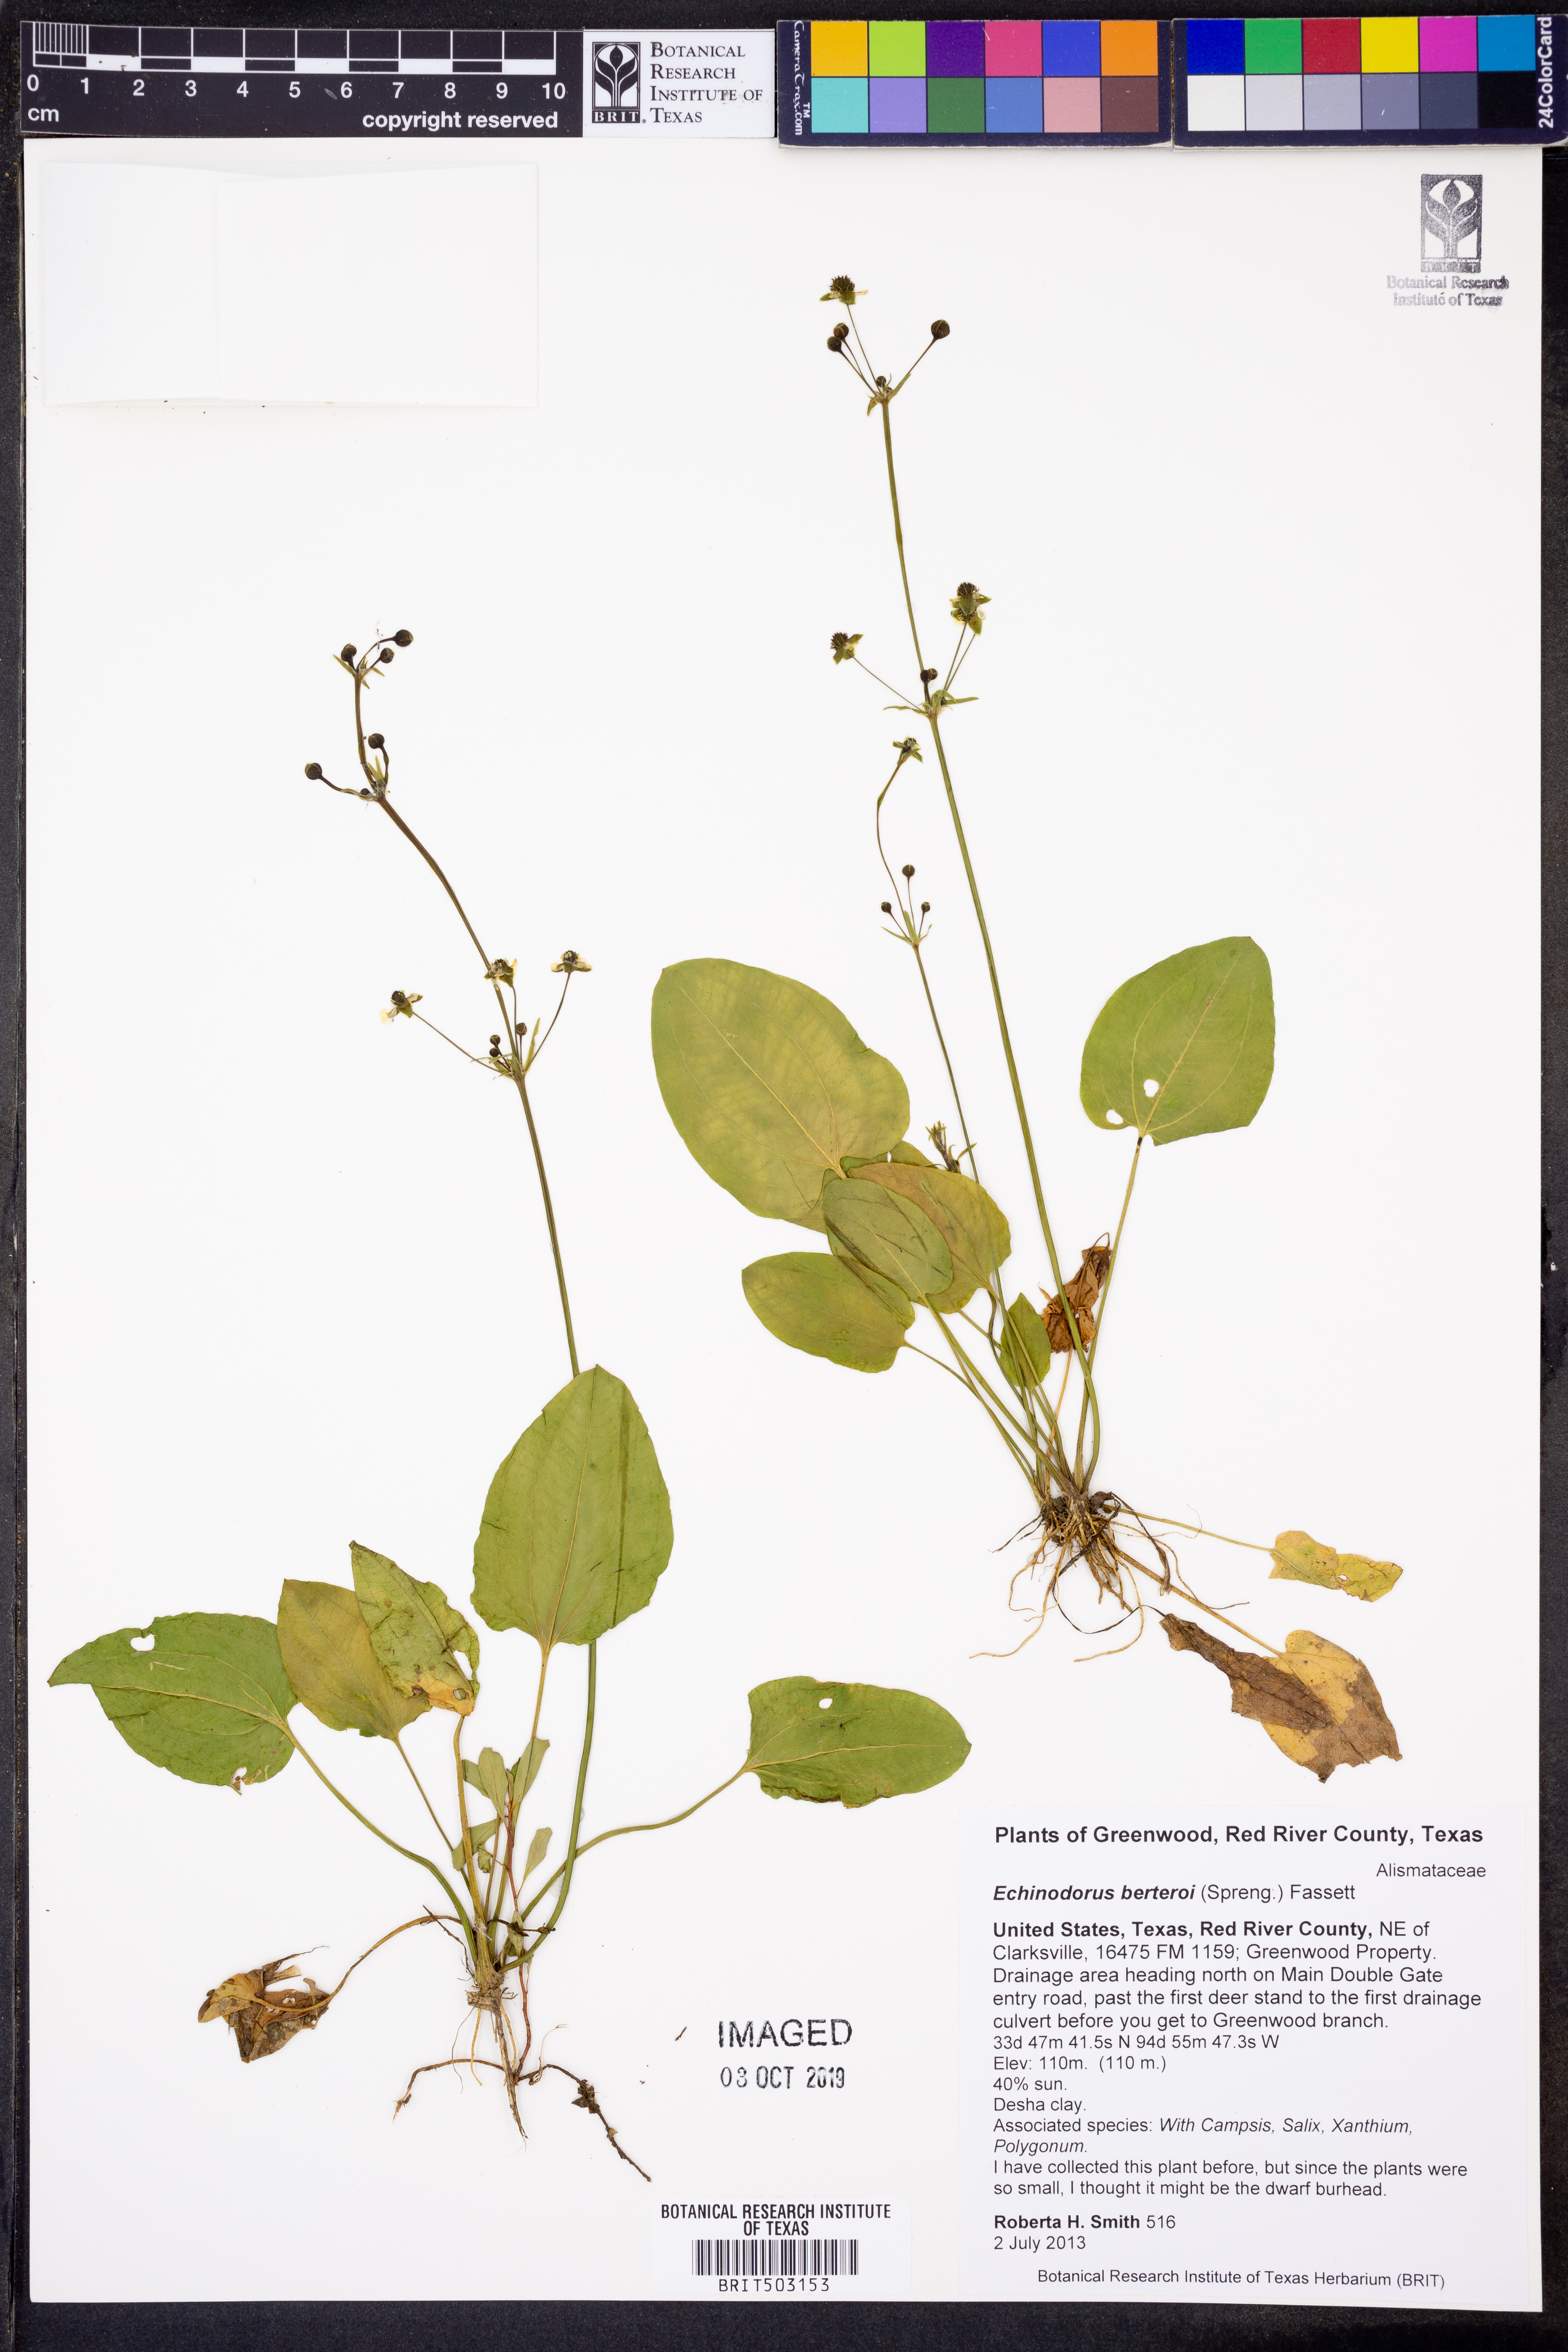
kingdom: Plantae
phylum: Tracheophyta
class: Liliopsida
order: Alismatales
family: Alismataceae
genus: Echinodorus
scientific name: Echinodorus berteroi
